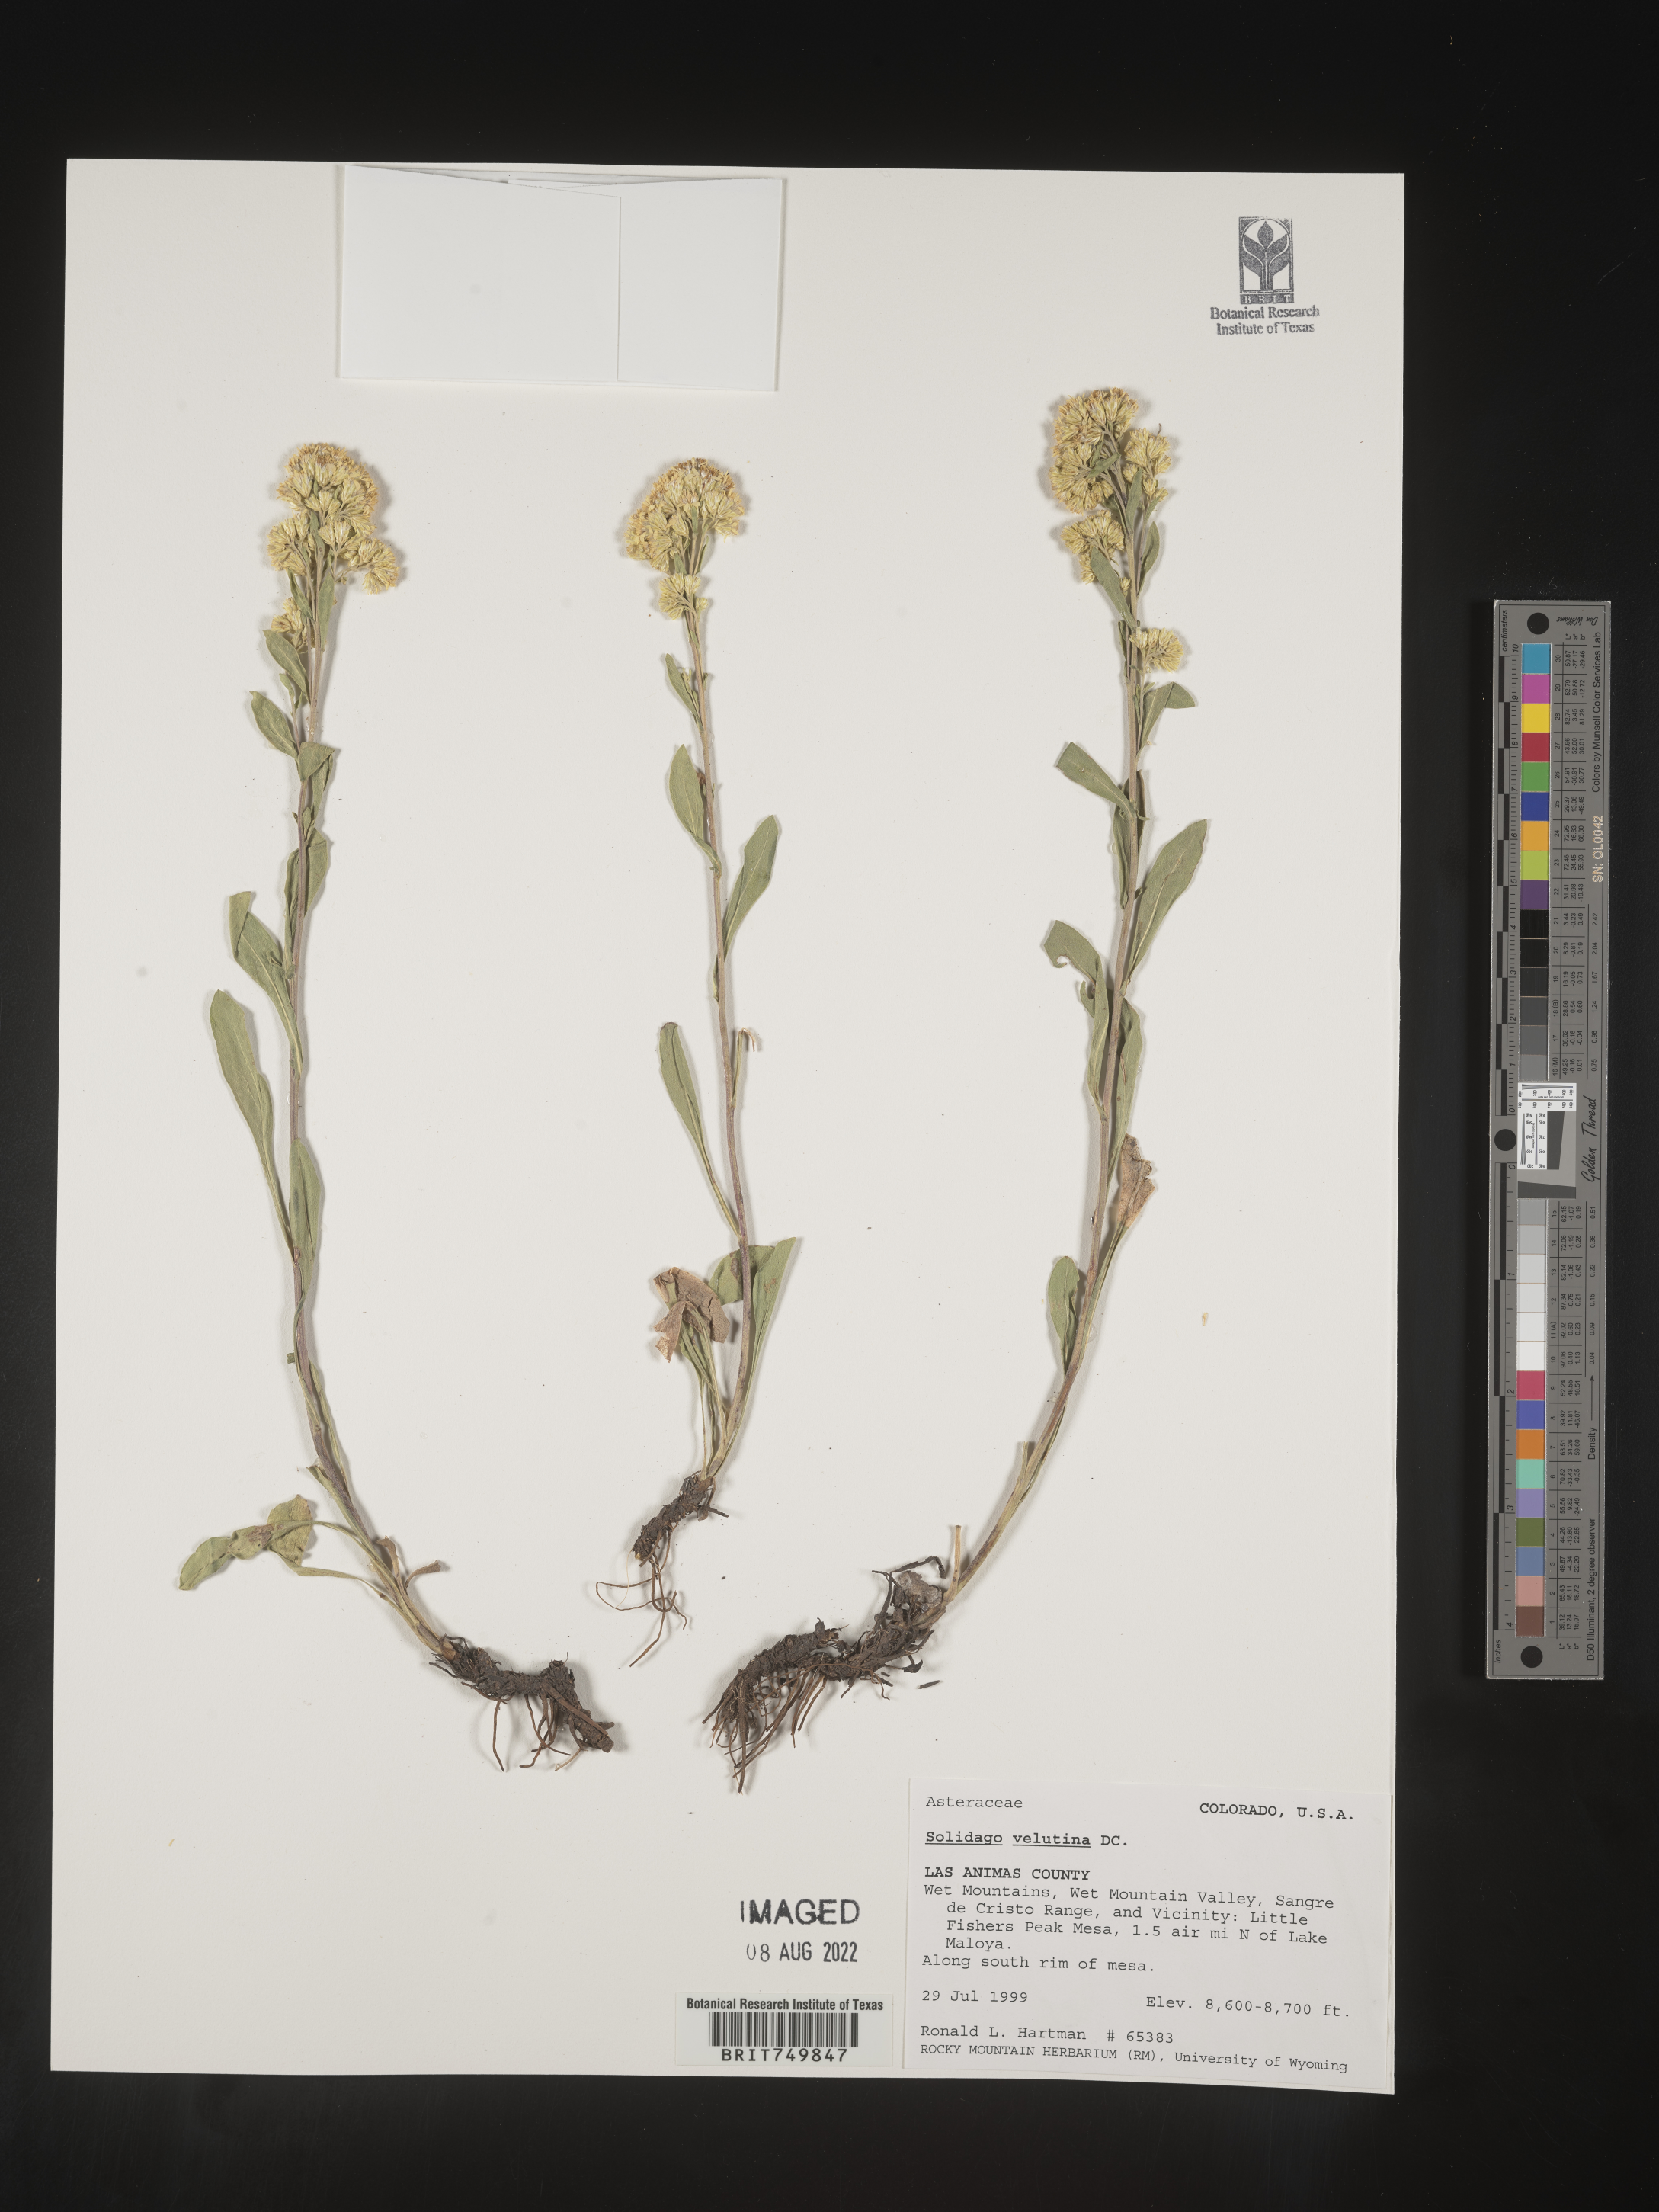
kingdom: Plantae
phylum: Tracheophyta
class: Magnoliopsida
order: Asterales
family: Asteraceae
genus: Solidago
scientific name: Solidago velutina
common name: Three-nerve goldenrod
